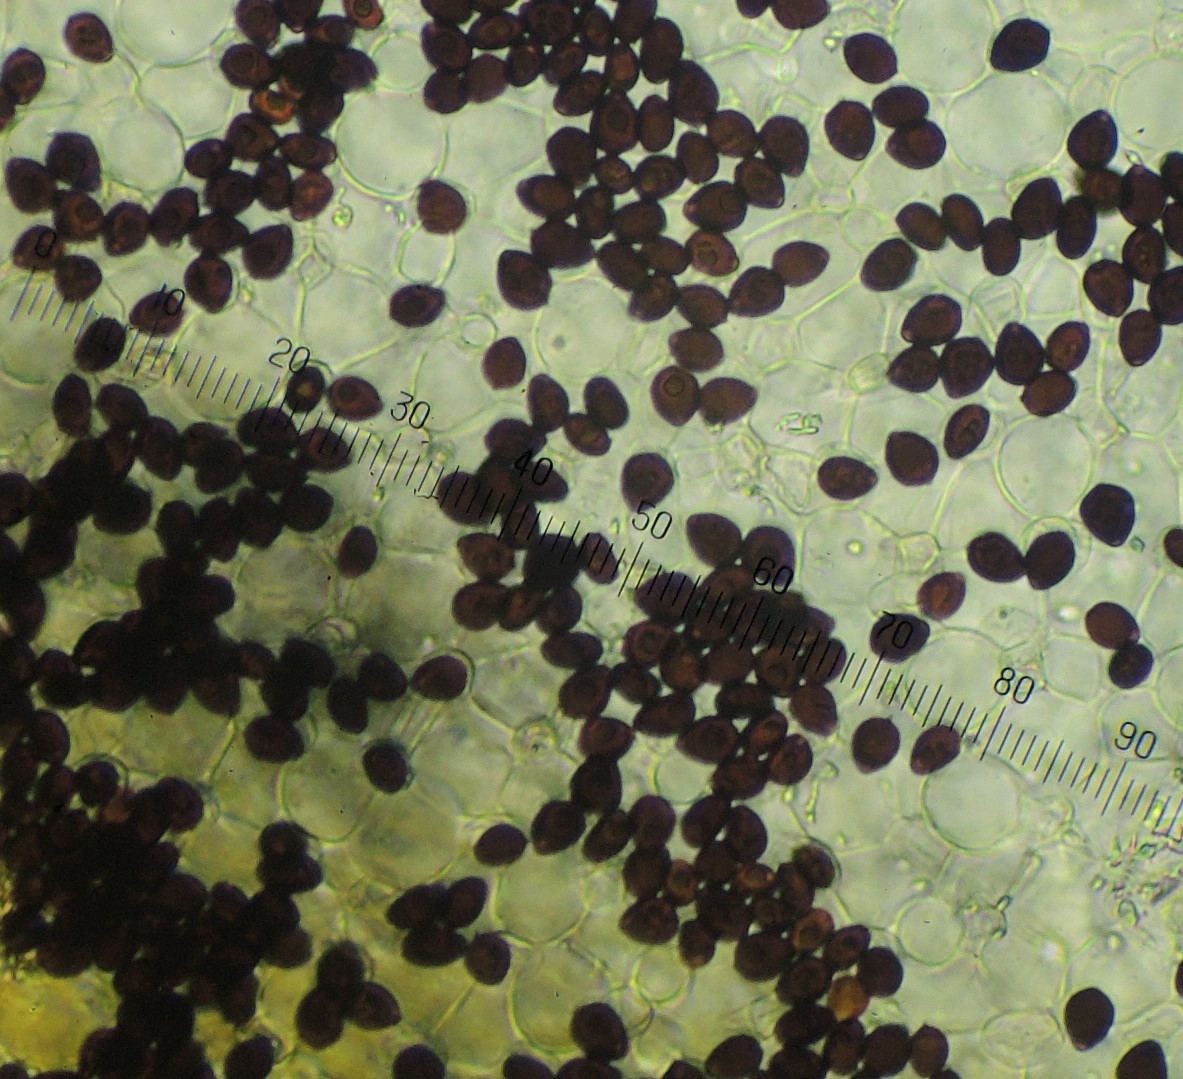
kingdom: Fungi
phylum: Basidiomycota
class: Agaricomycetes
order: Agaricales
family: Psathyrellaceae
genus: Parasola
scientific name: Parasola kuehneri
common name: skygge-hjulhat
